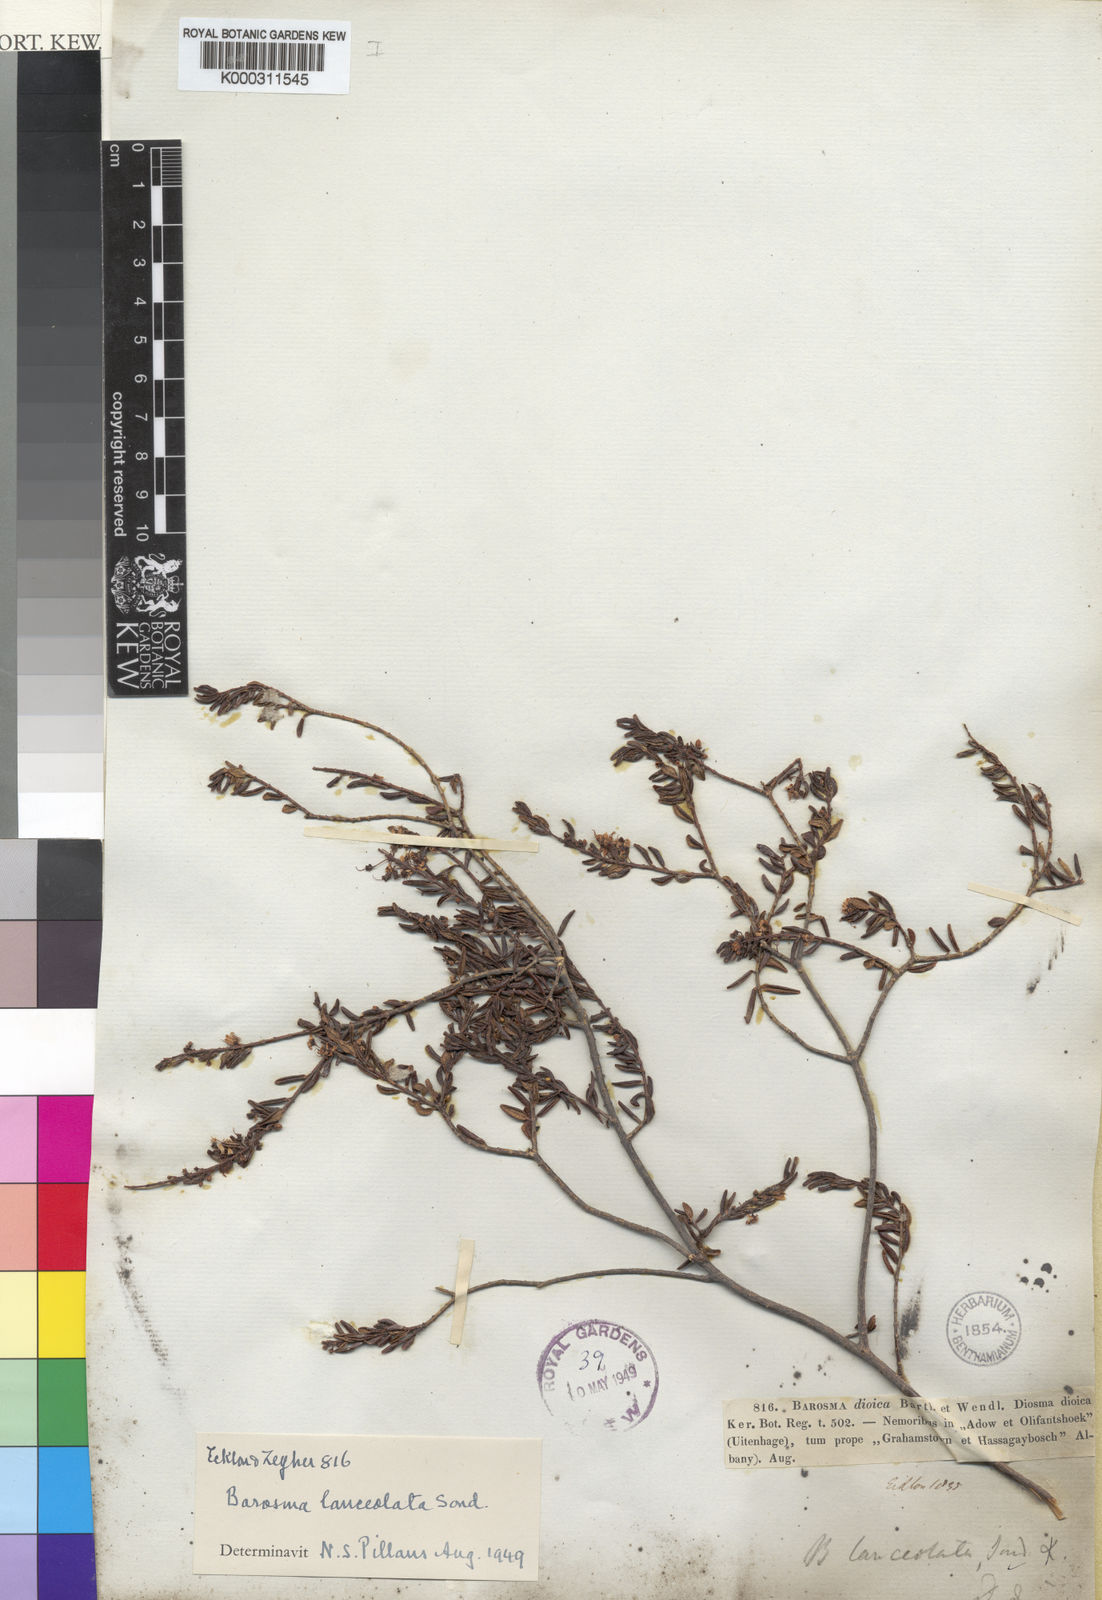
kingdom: Plantae
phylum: Tracheophyta
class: Magnoliopsida
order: Sapindales
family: Rutaceae
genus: Agathosma
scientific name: Agathosma
